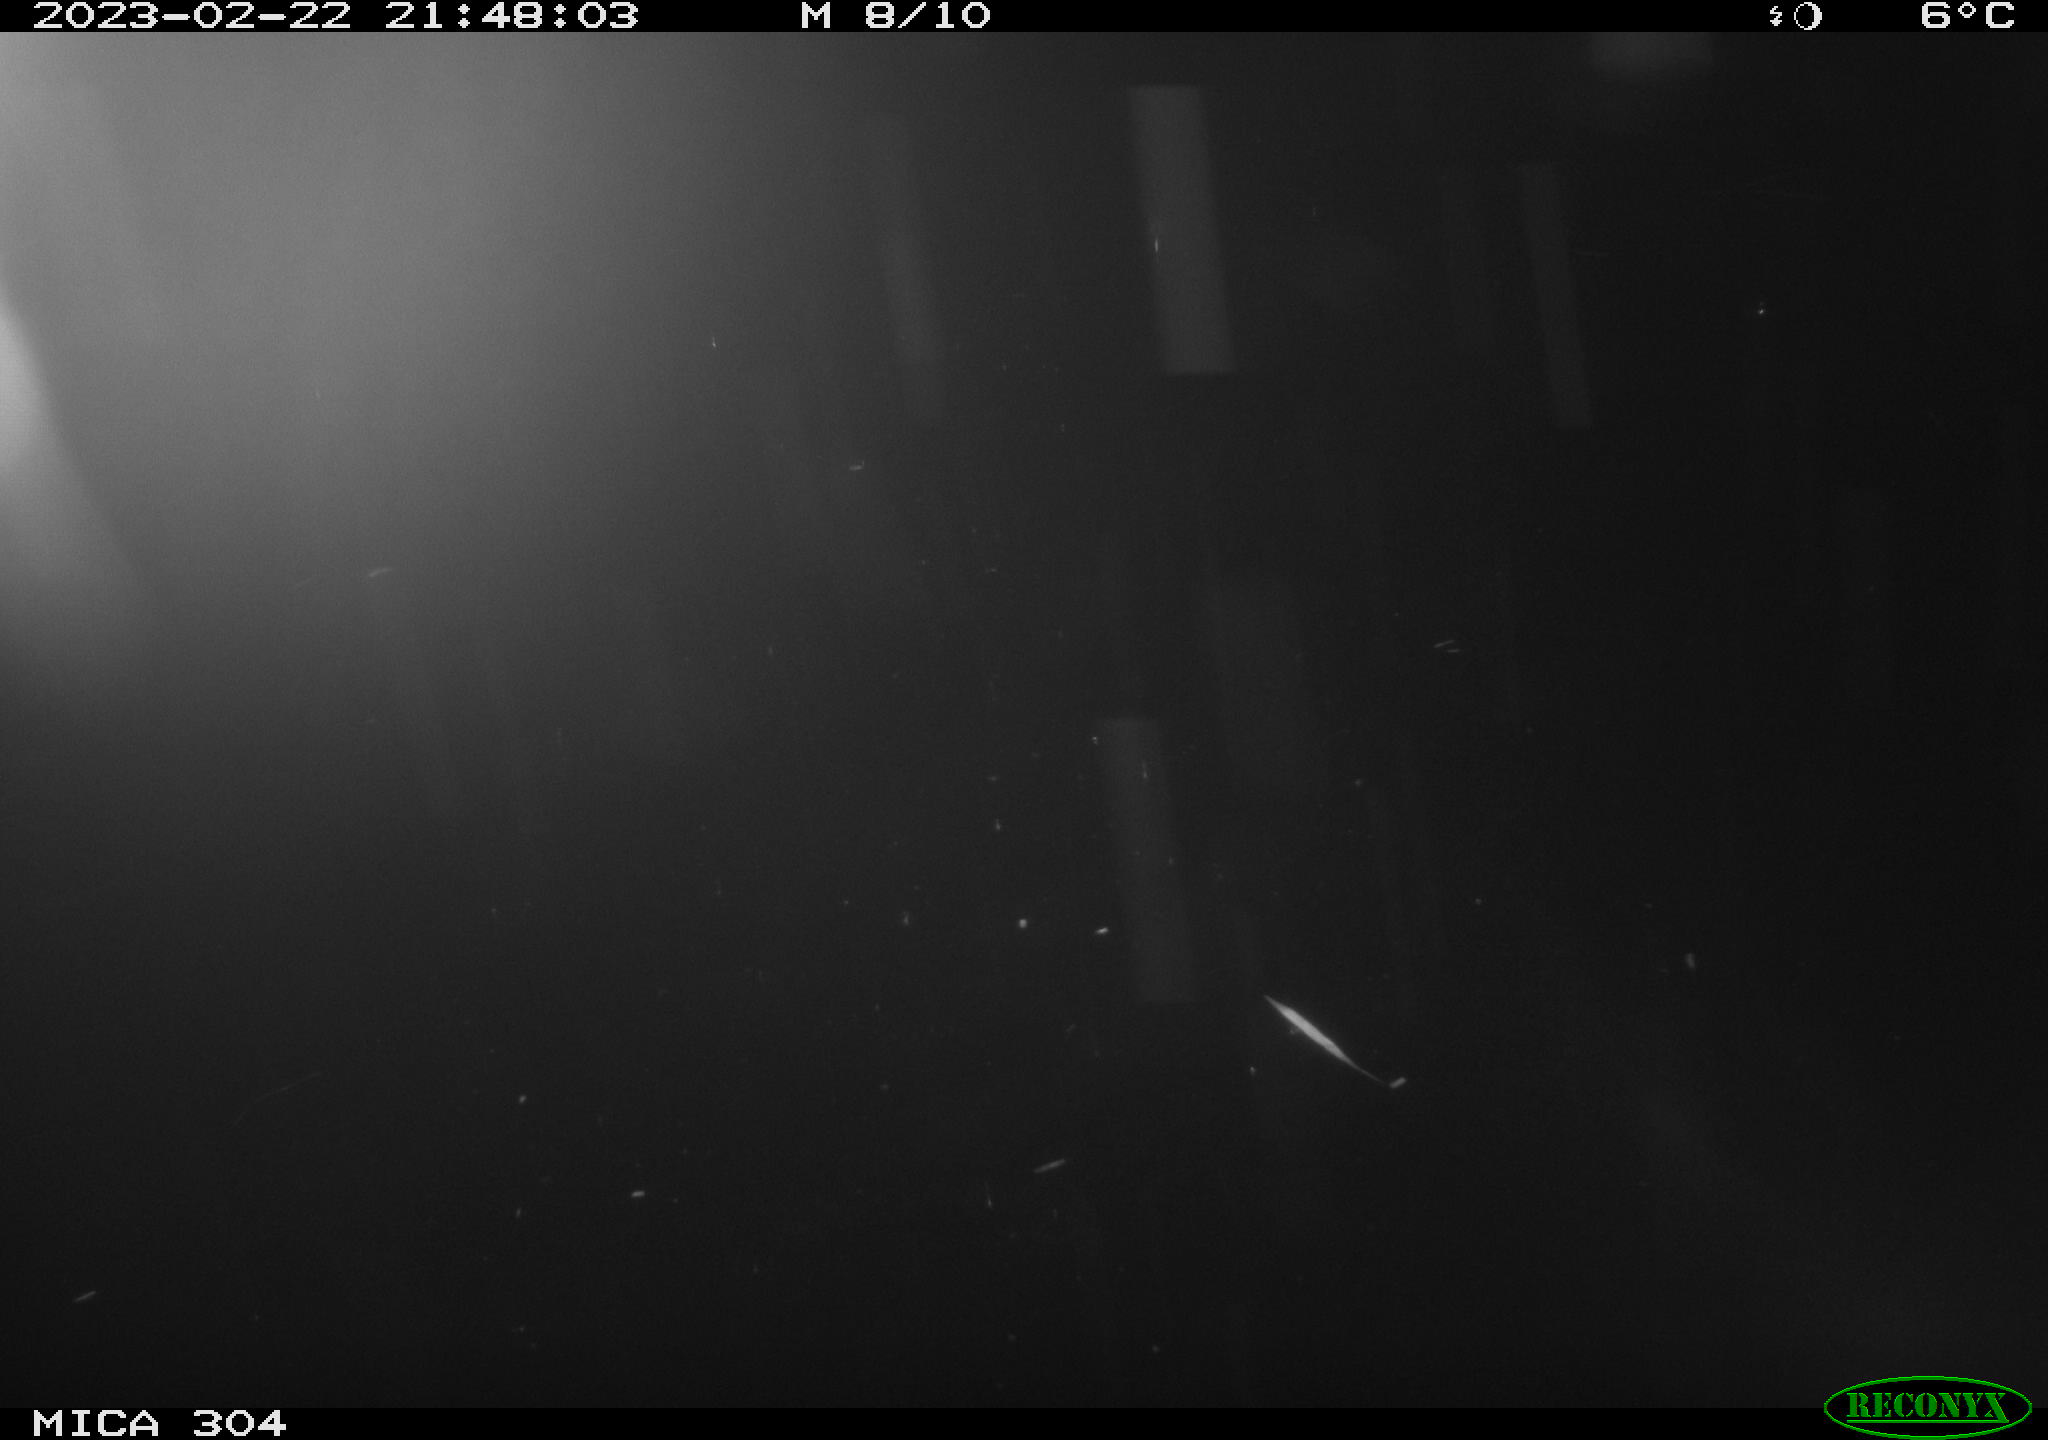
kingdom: Animalia
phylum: Chordata
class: Mammalia
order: Rodentia
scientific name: Rodentia
